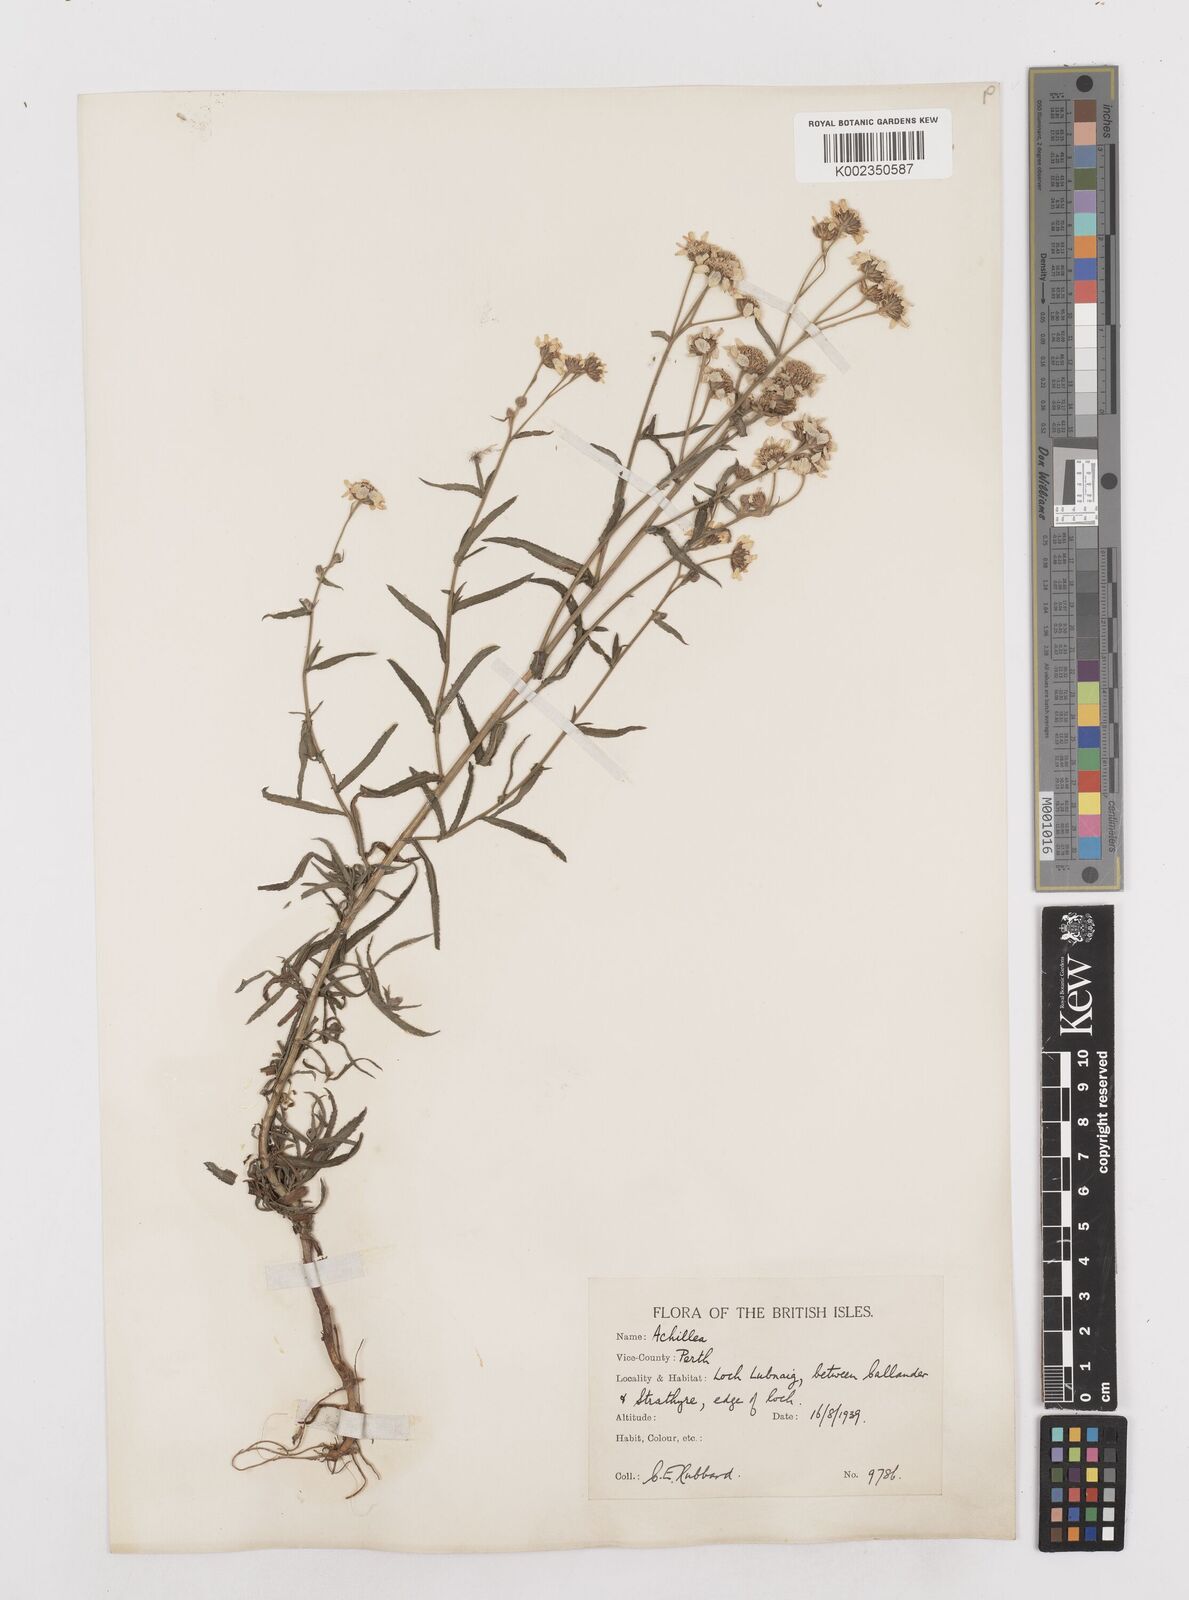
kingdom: Plantae
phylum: Tracheophyta
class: Magnoliopsida
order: Asterales
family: Asteraceae
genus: Achillea
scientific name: Achillea
